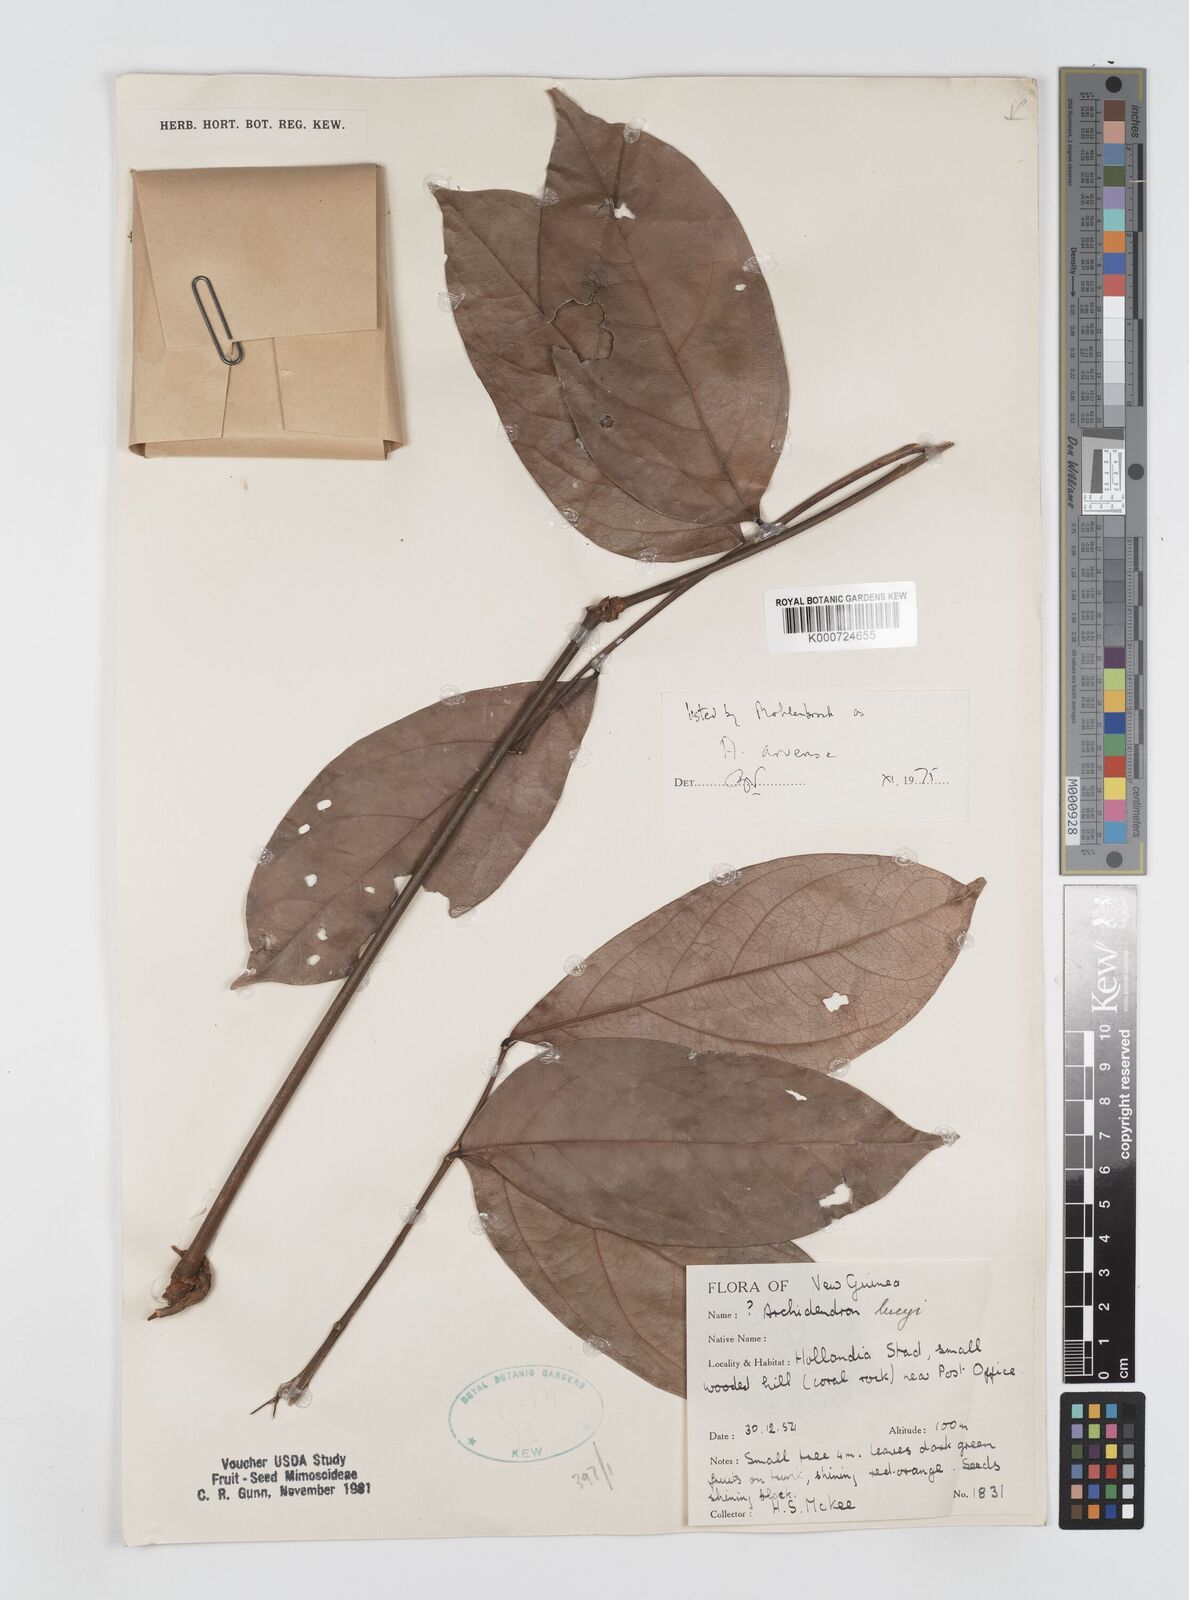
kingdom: Plantae
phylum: Tracheophyta
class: Magnoliopsida
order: Fabales
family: Fabaceae
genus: Archidendron
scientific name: Archidendron aruense
